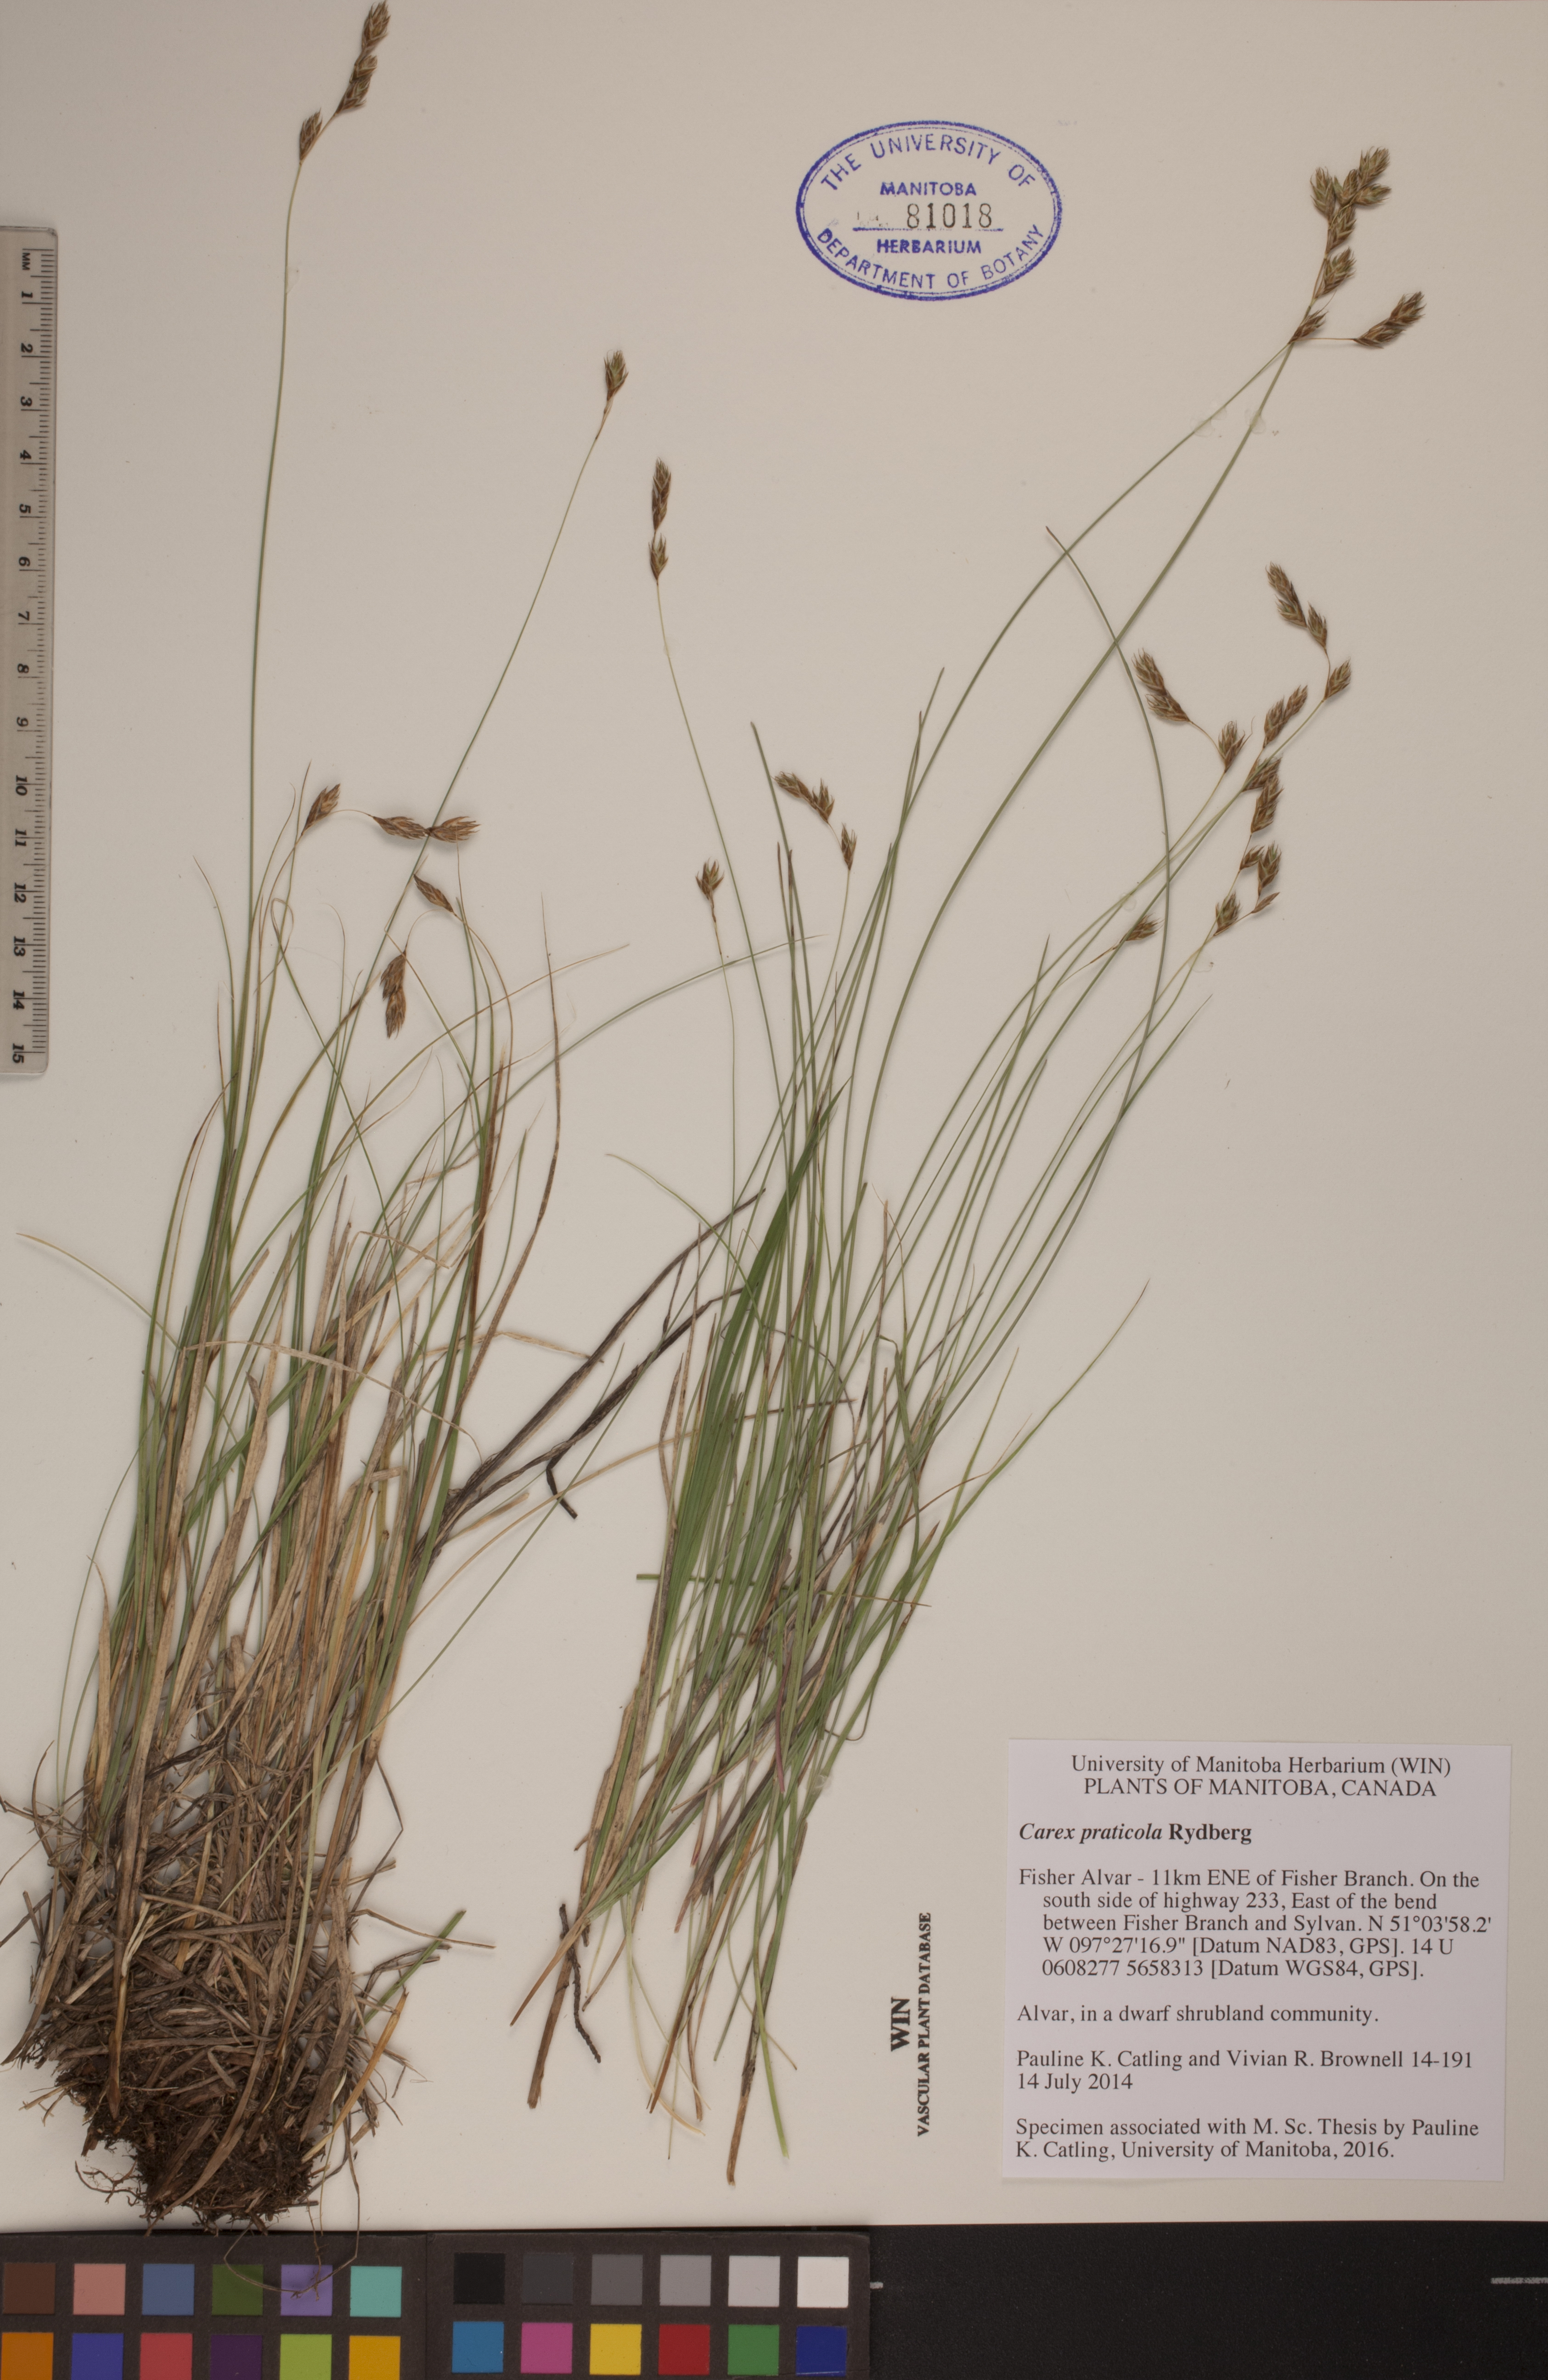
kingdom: Plantae
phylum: Tracheophyta
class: Liliopsida
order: Poales
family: Cyperaceae
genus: Carex
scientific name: Carex praticola
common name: Large-fruited oval sedge
